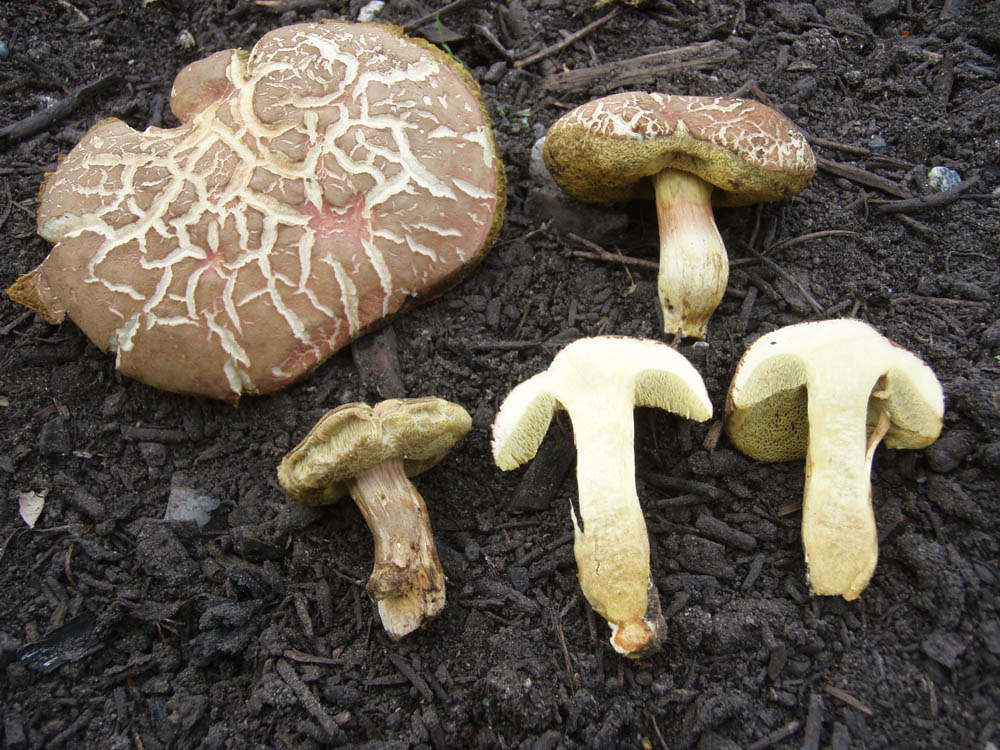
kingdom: Fungi
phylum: Basidiomycota
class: Agaricomycetes
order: Boletales
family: Boletaceae
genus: Hortiboletus
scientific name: Hortiboletus engelii
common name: fersken-rørhat
